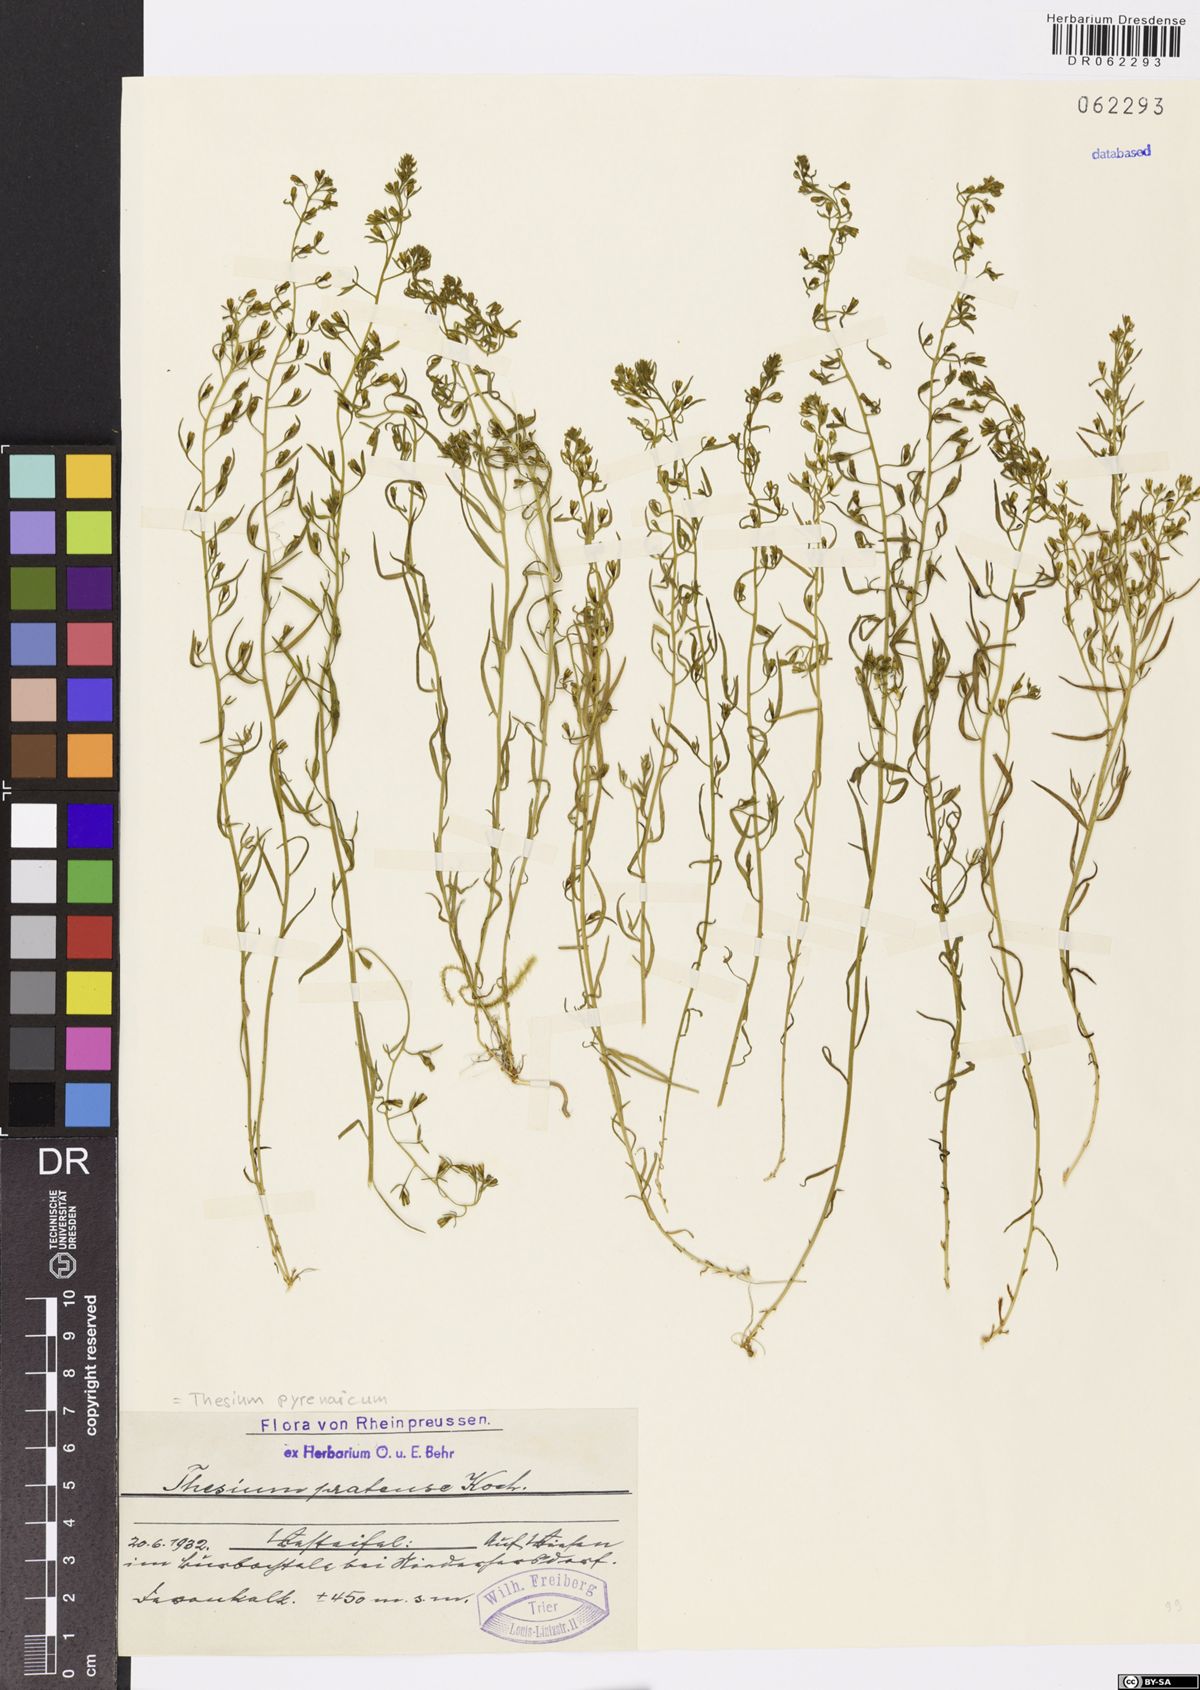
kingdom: Plantae
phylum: Tracheophyta
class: Magnoliopsida
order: Santalales
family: Thesiaceae
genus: Thesium
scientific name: Thesium pyrenaicum
